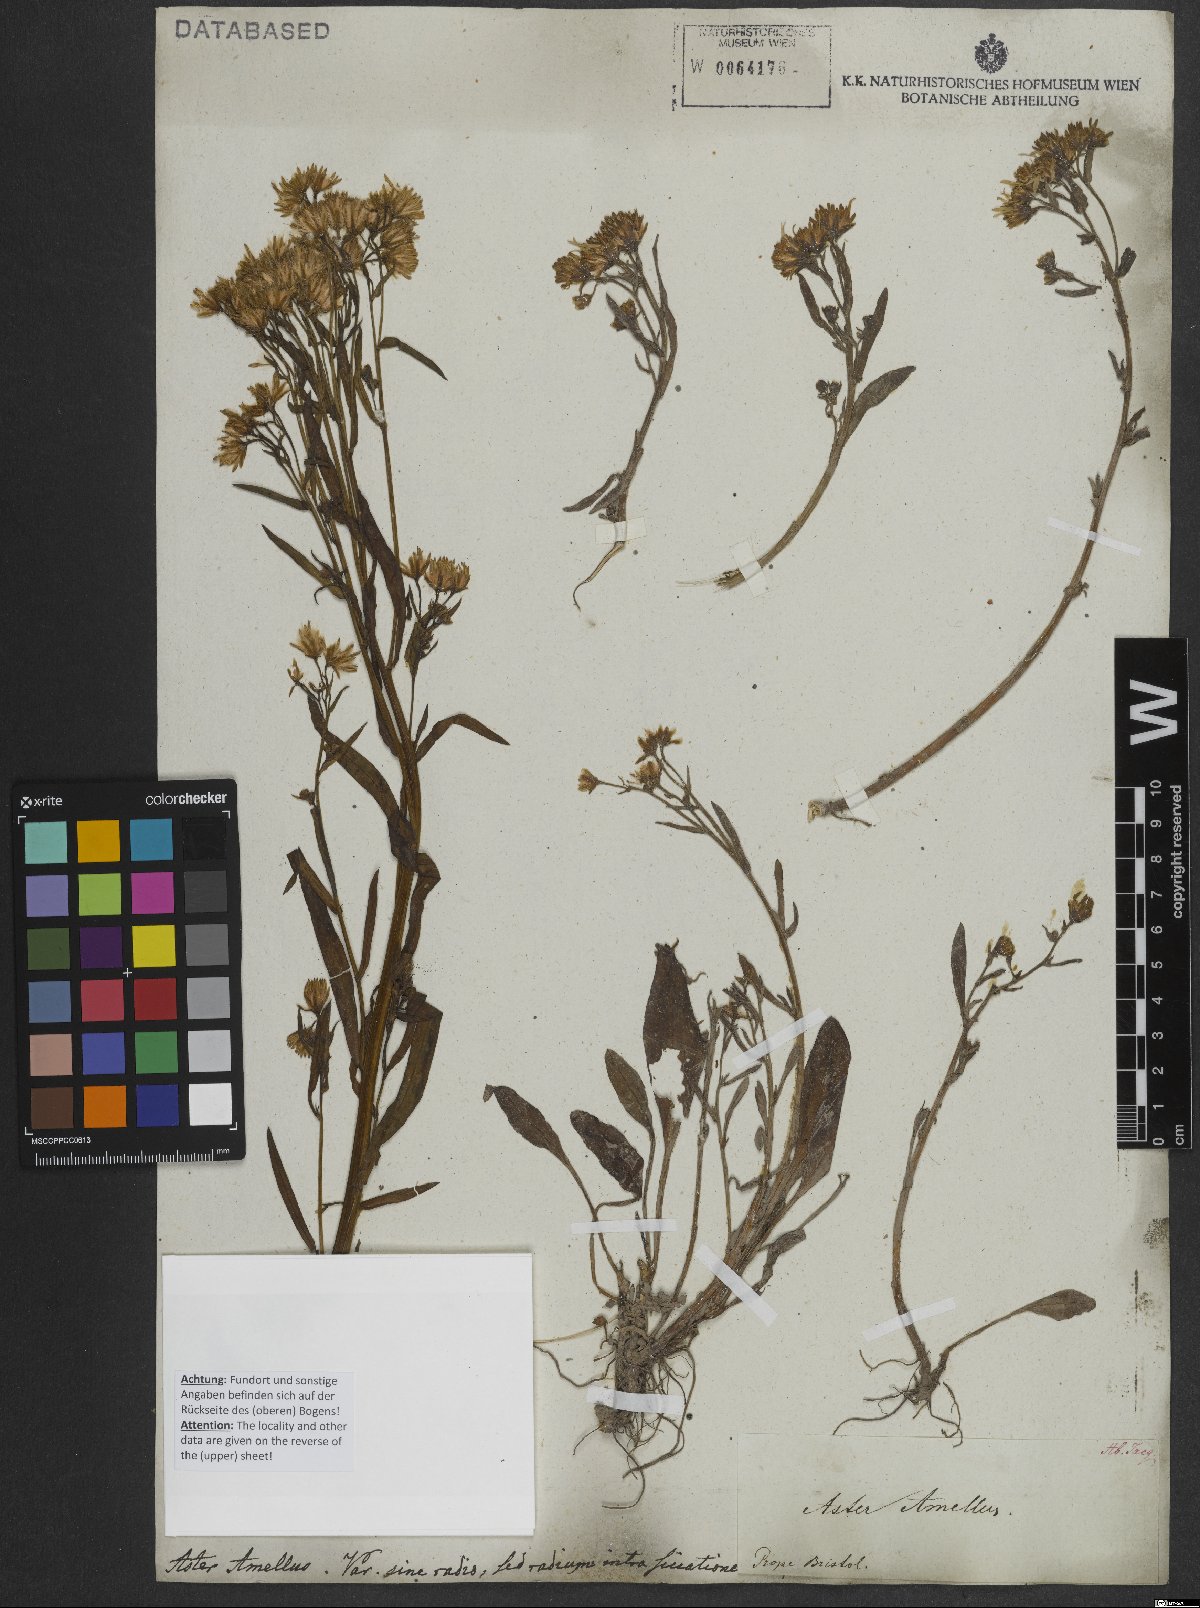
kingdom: Plantae
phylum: Tracheophyta
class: Magnoliopsida
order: Asterales
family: Asteraceae
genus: Aster
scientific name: Aster amellus
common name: European michaelmas daisy
